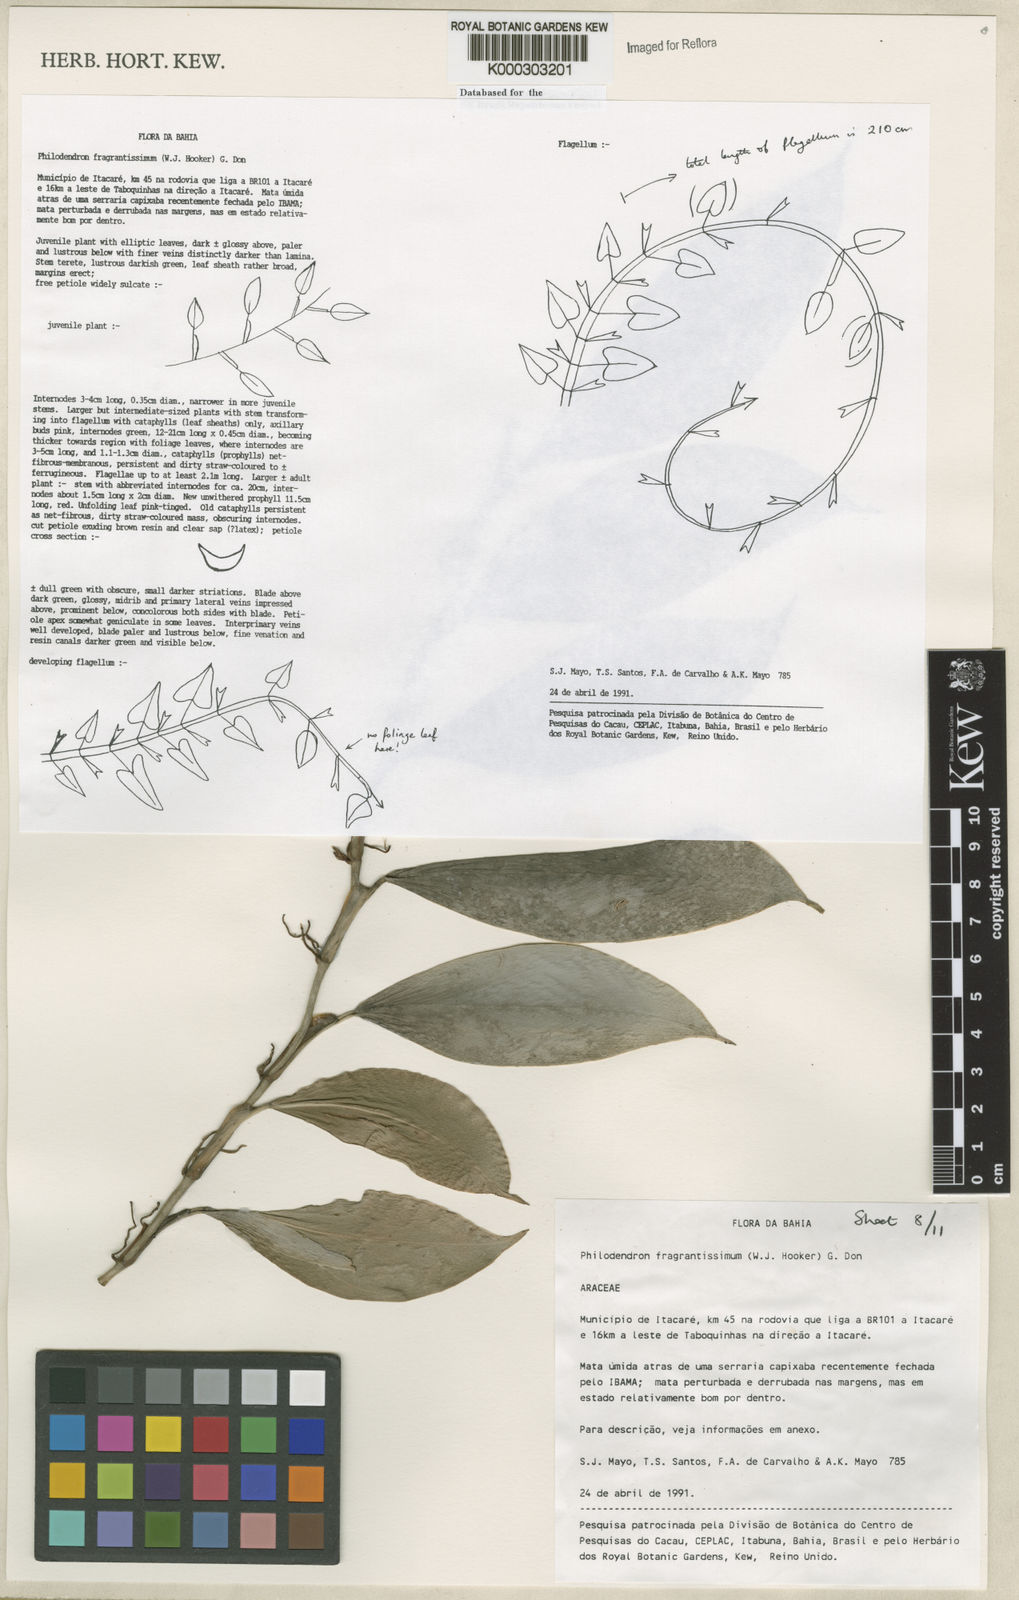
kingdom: Plantae
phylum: Tracheophyta
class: Liliopsida
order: Alismatales
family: Araceae
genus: Philodendron
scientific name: Philodendron fragrantissimum
